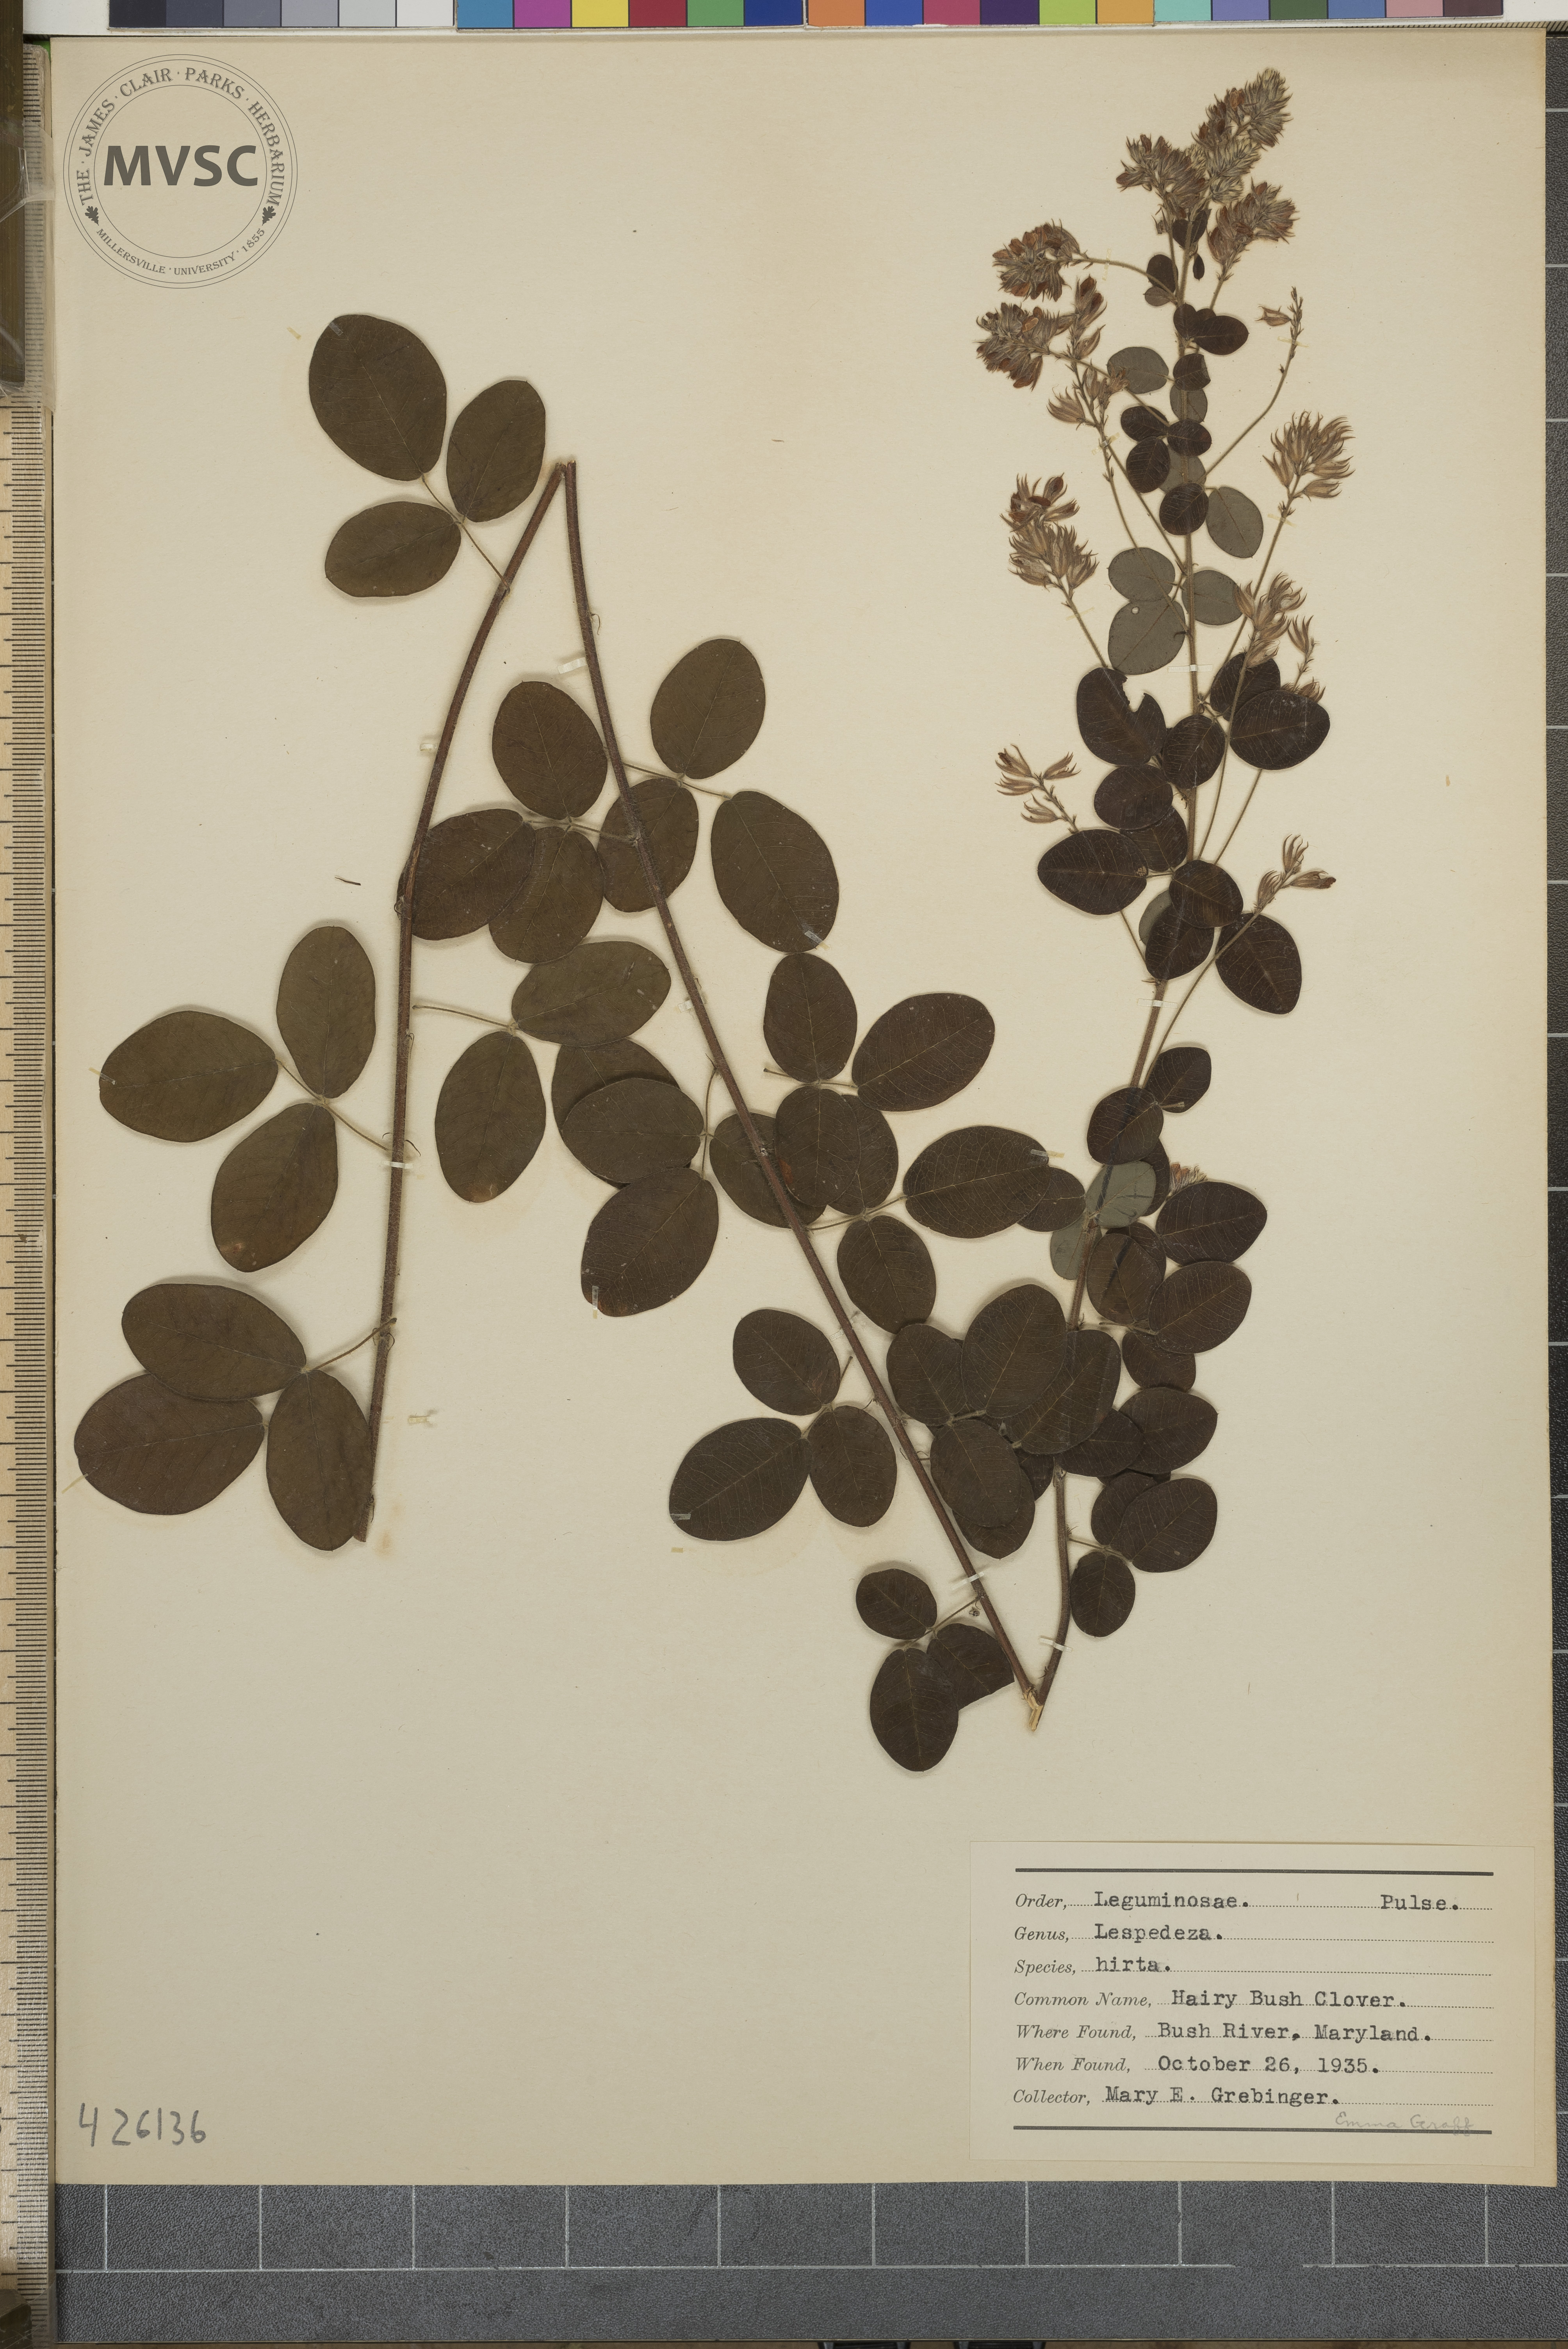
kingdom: Plantae
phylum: Tracheophyta
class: Magnoliopsida
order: Fabales
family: Fabaceae
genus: Lespedeza
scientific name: Lespedeza hirta
